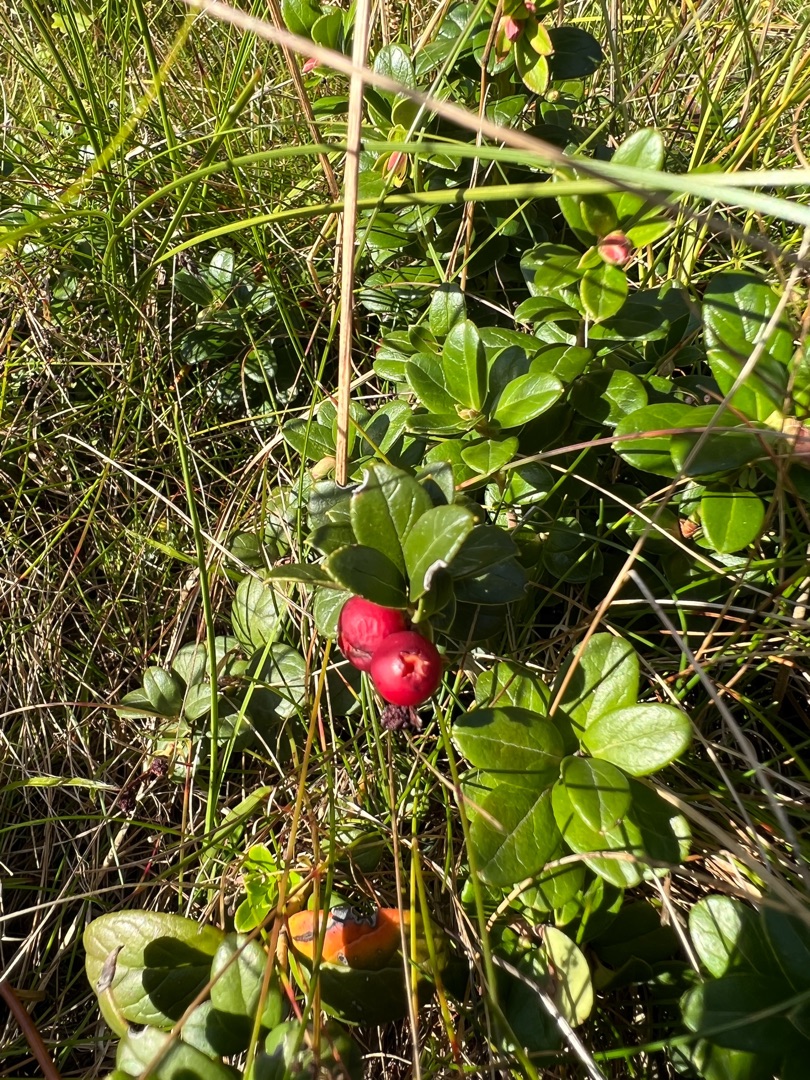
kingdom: Plantae
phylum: Tracheophyta
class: Magnoliopsida
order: Ericales
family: Ericaceae
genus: Vaccinium
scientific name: Vaccinium vitis-idaea
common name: Tyttebær
